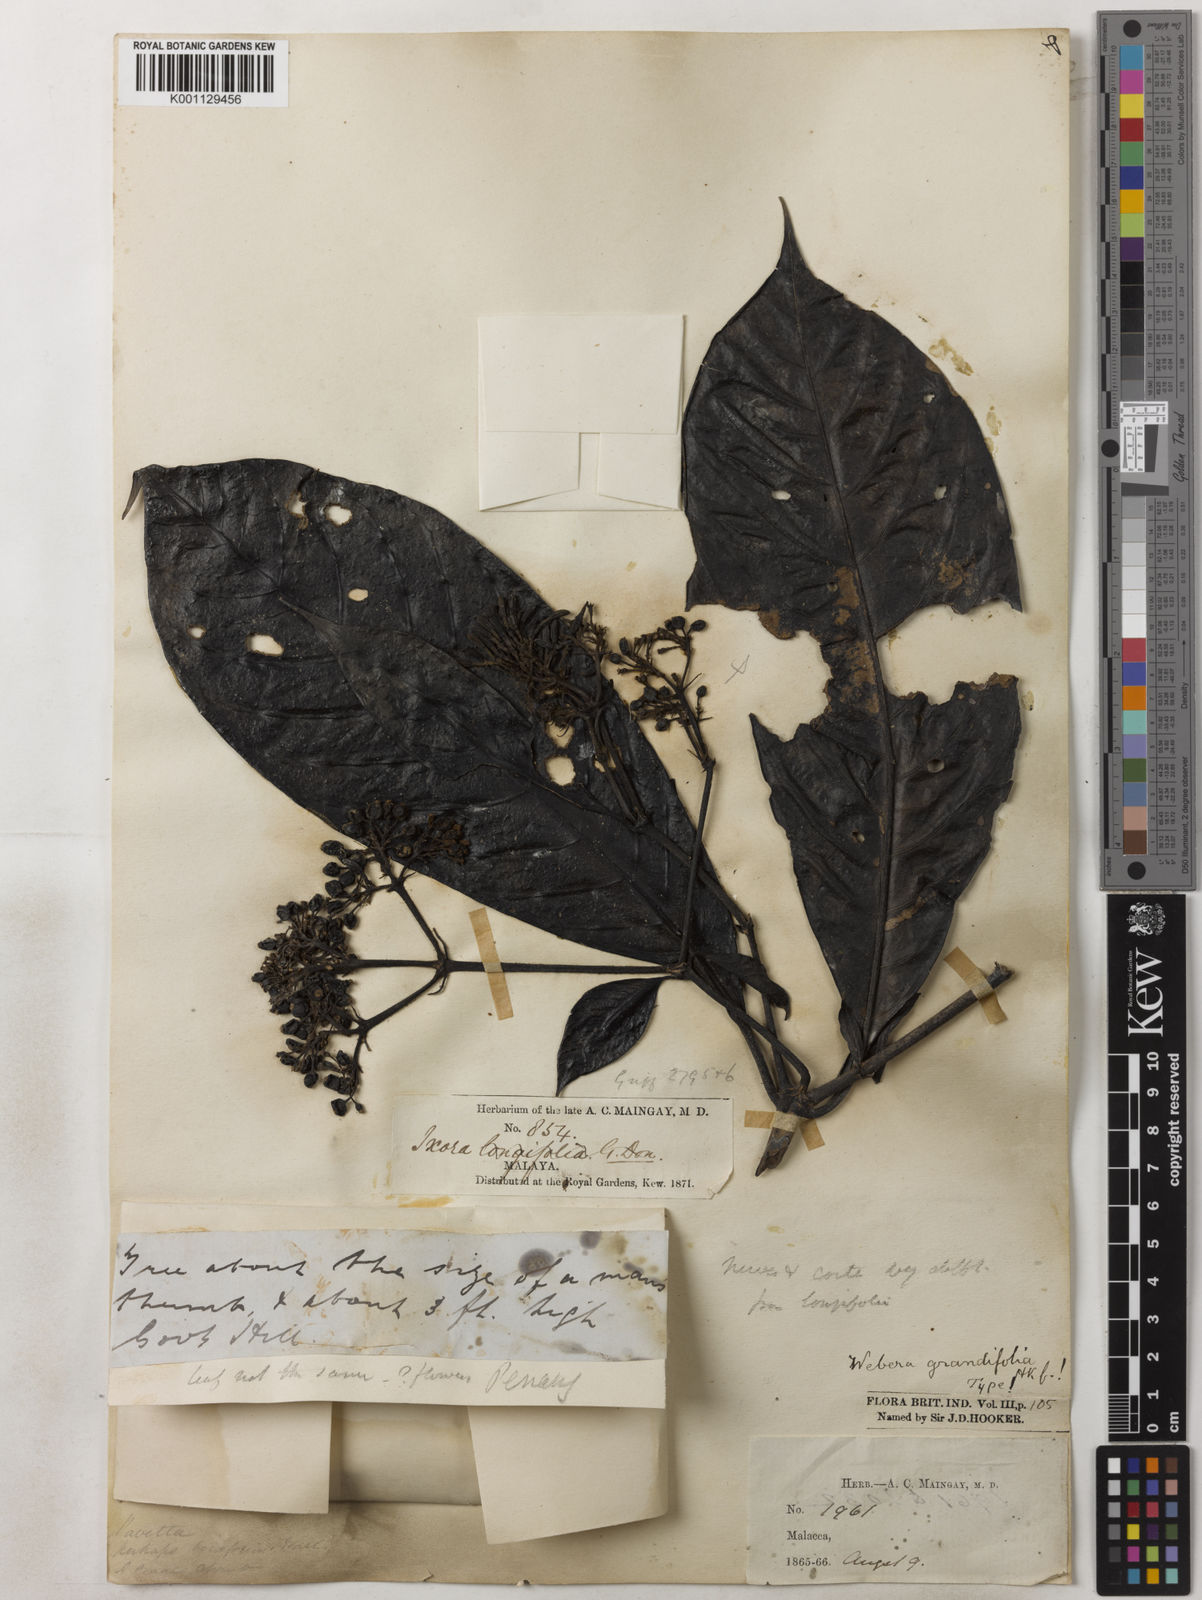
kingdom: Plantae
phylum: Tracheophyta
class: Magnoliopsida
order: Gentianales
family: Rubiaceae
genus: Tarenna
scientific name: Tarenna longifolia
